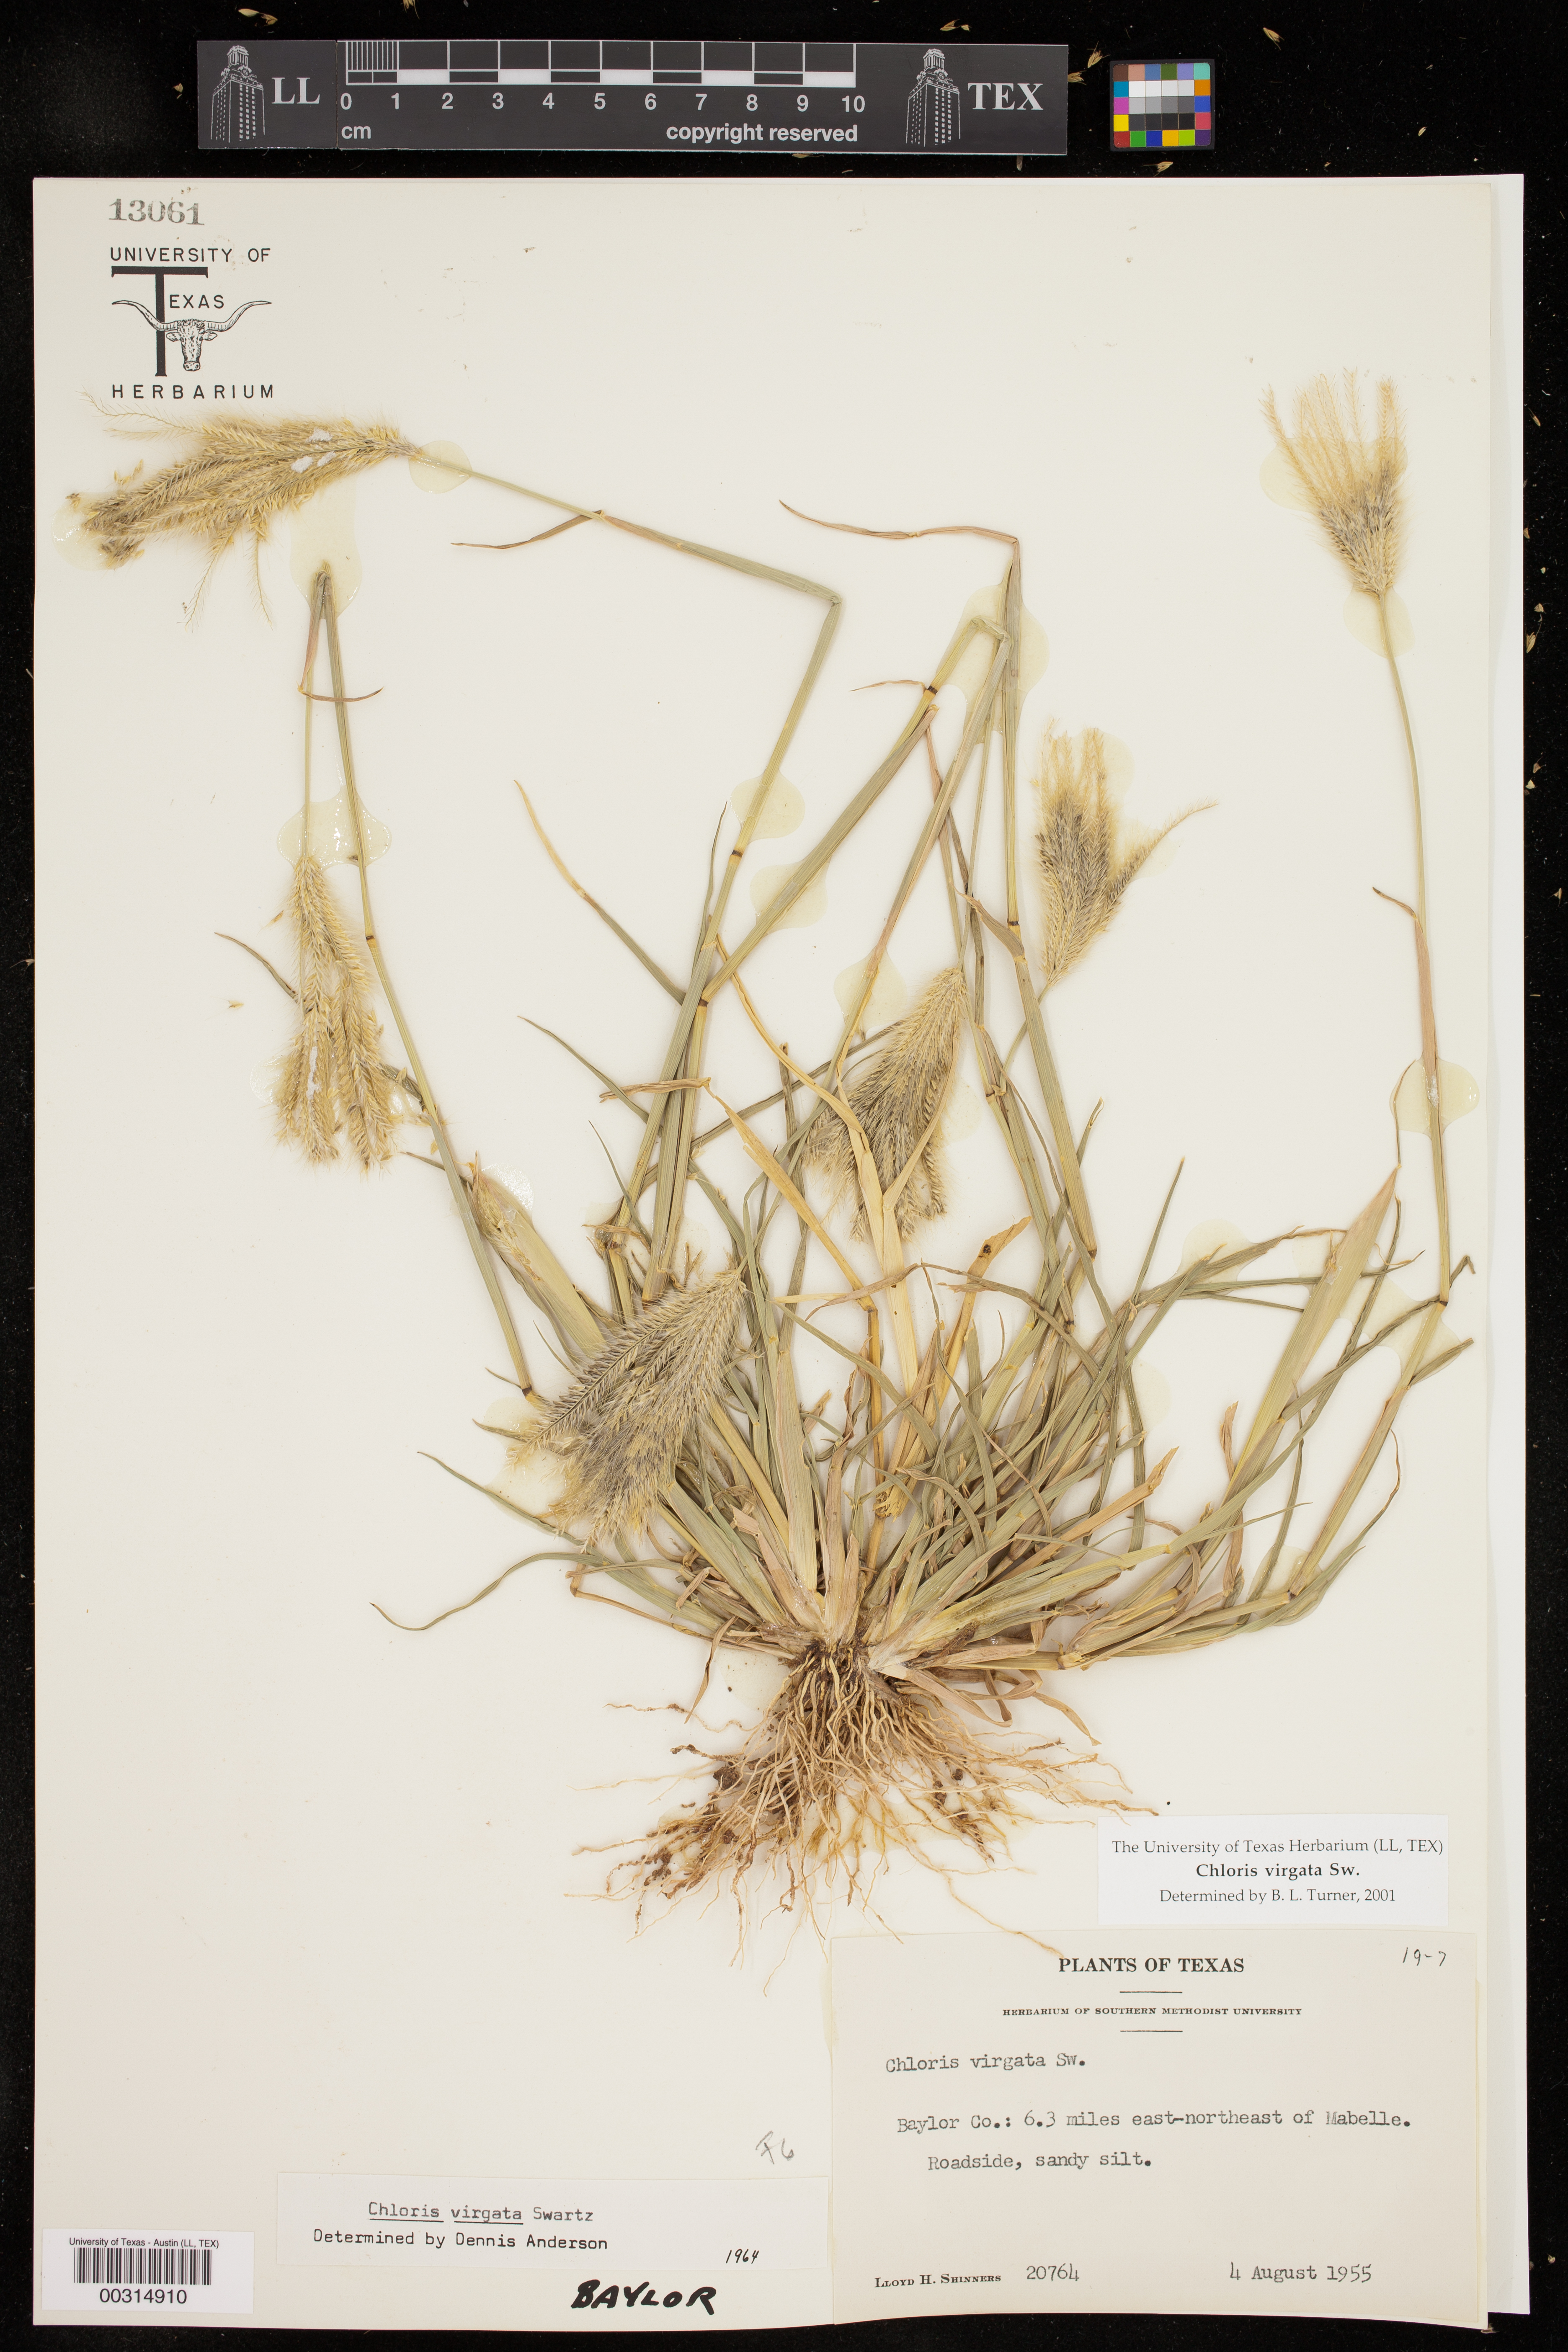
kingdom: Plantae
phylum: Tracheophyta
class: Liliopsida
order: Poales
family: Poaceae
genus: Chloris
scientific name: Chloris virgata
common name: Feathery rhodes-grass
